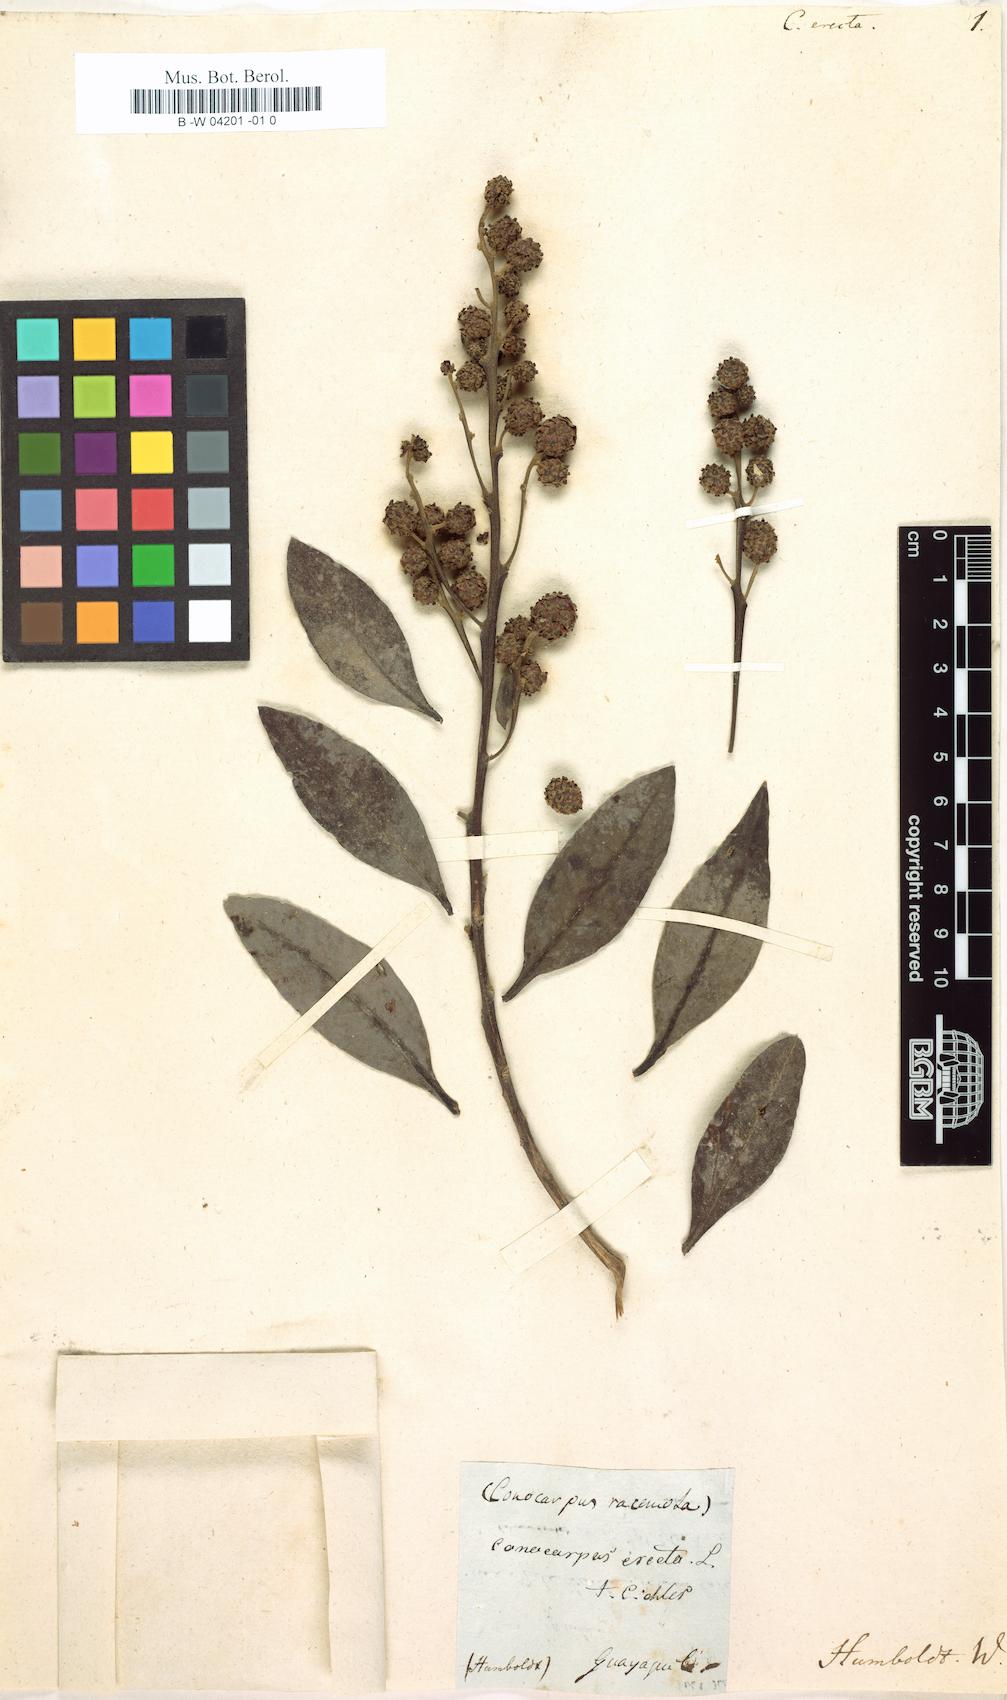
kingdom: Plantae
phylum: Tracheophyta
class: Magnoliopsida
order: Myrtales
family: Combretaceae
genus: Conocarpus
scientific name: Conocarpus erectus
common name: Button mangrove
